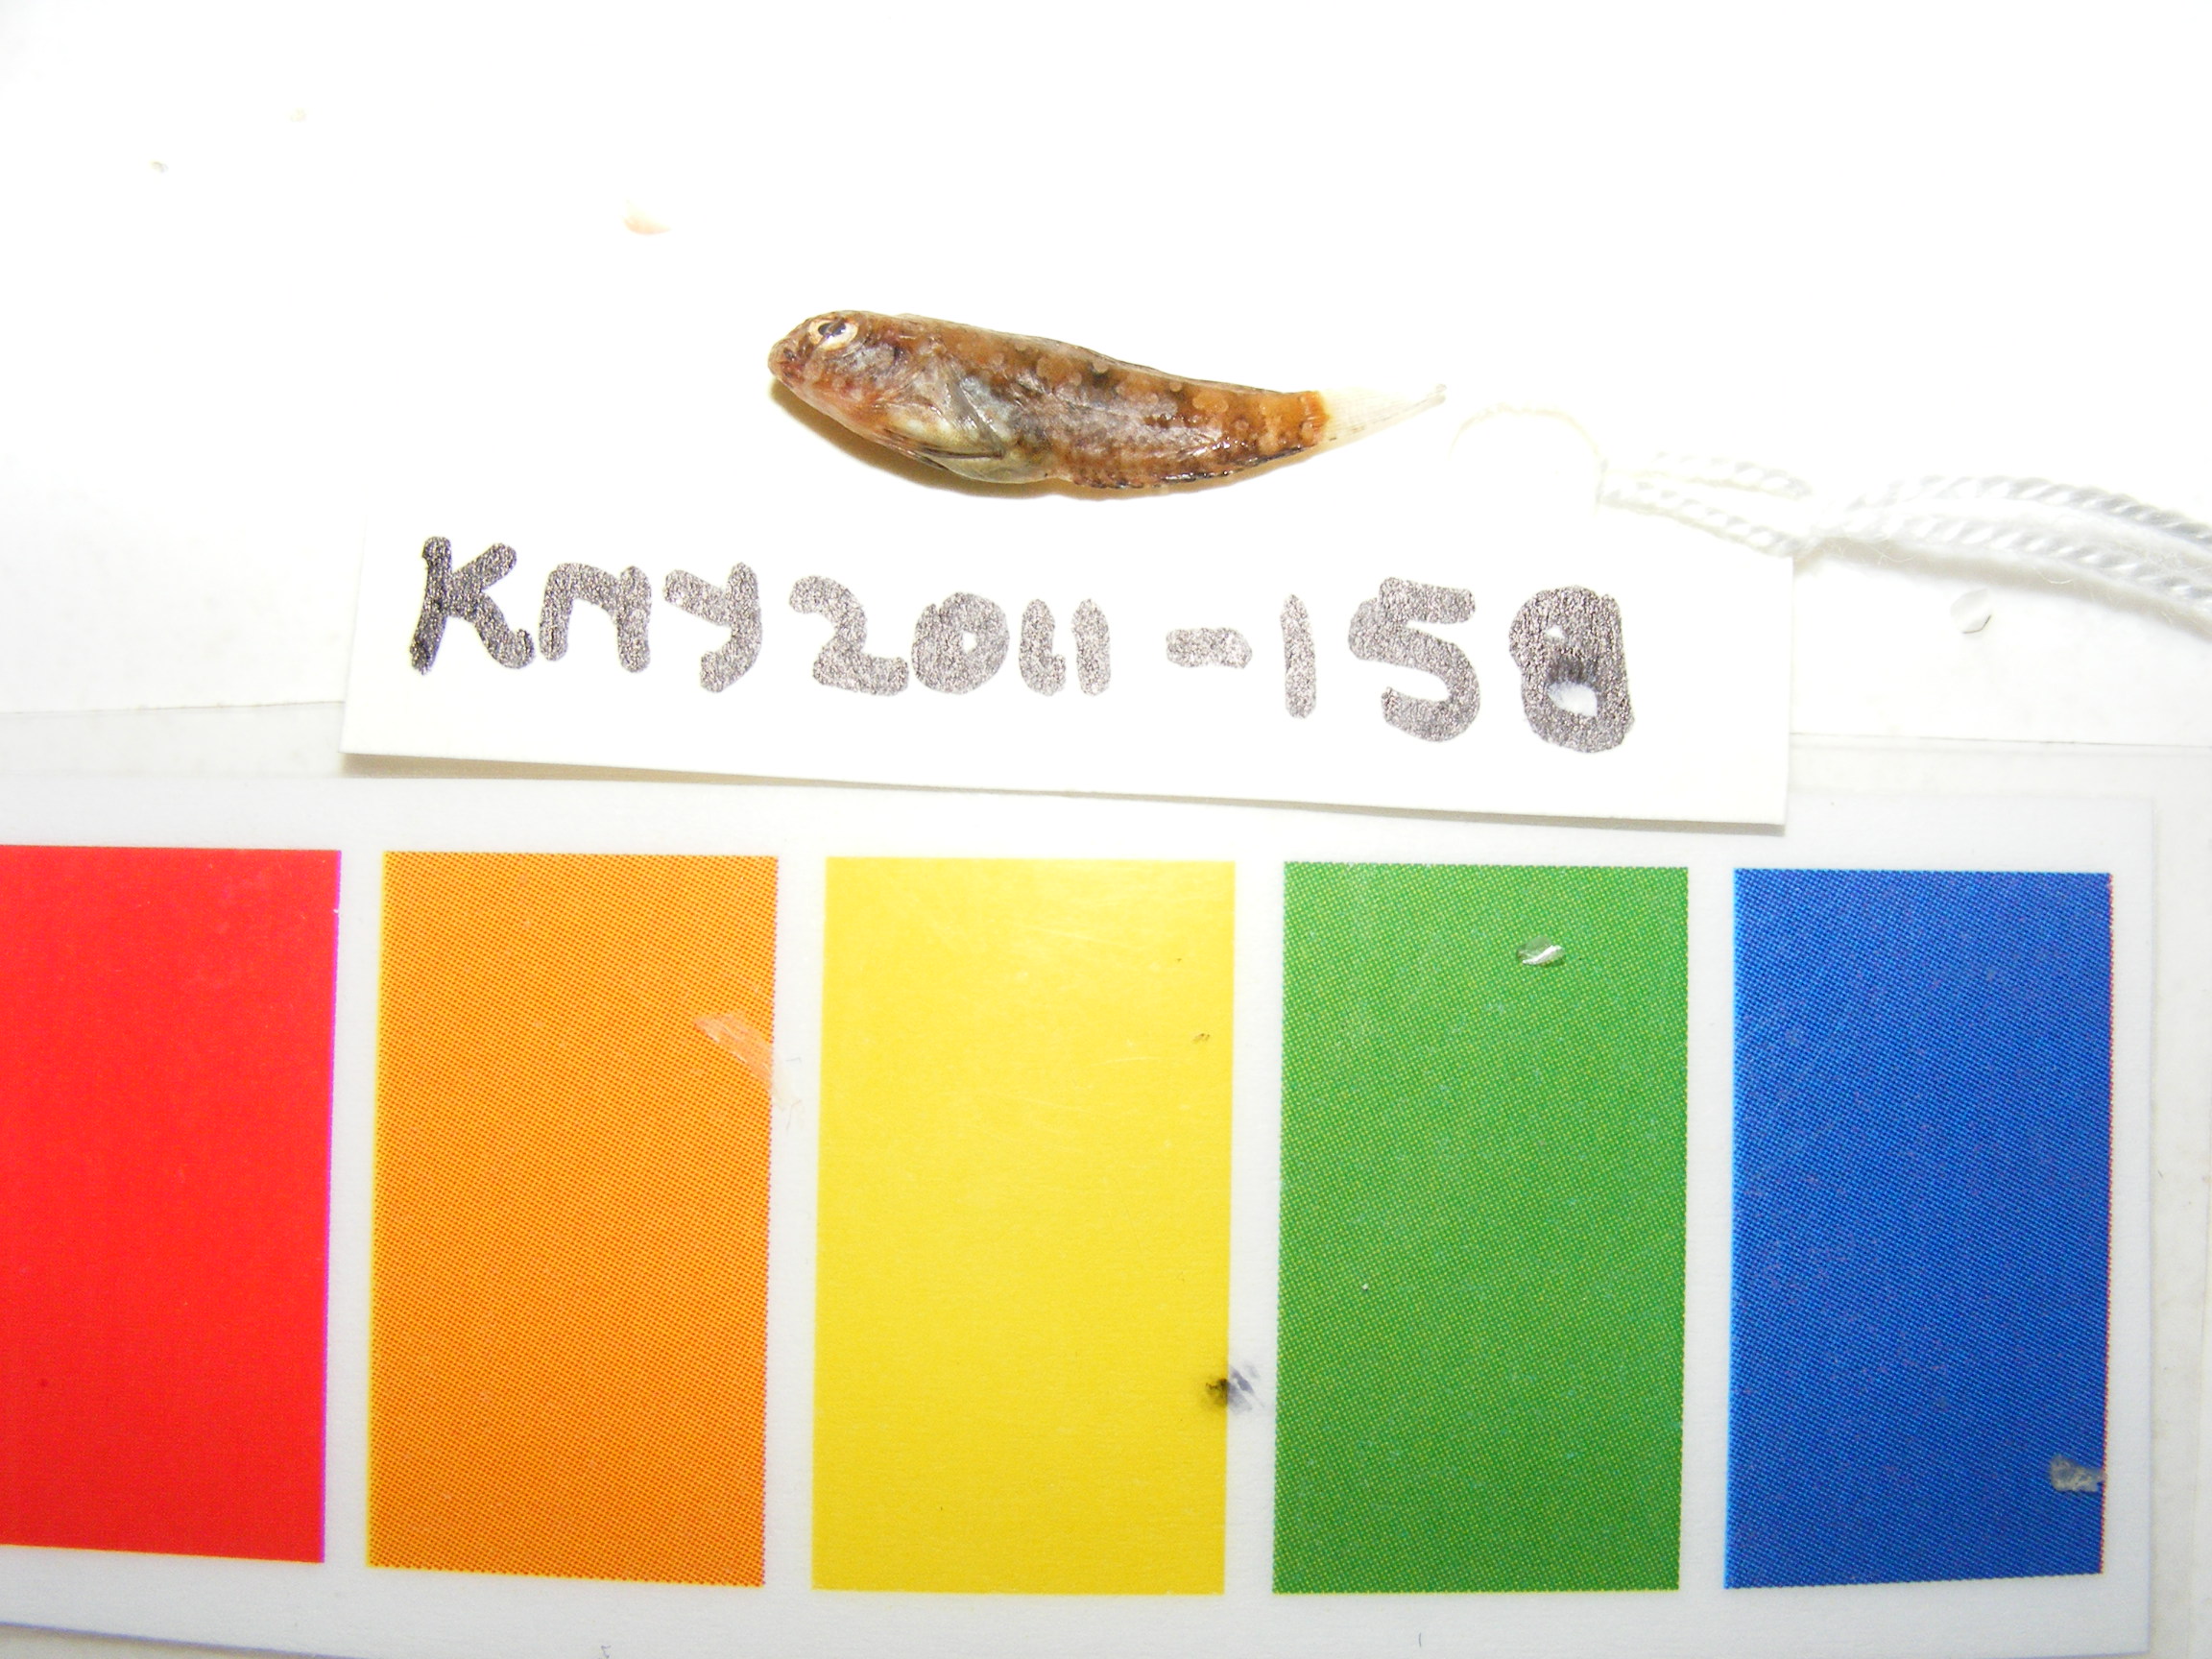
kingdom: Animalia
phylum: Chordata
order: Perciformes
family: Blenniidae
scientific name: Blenniidae
